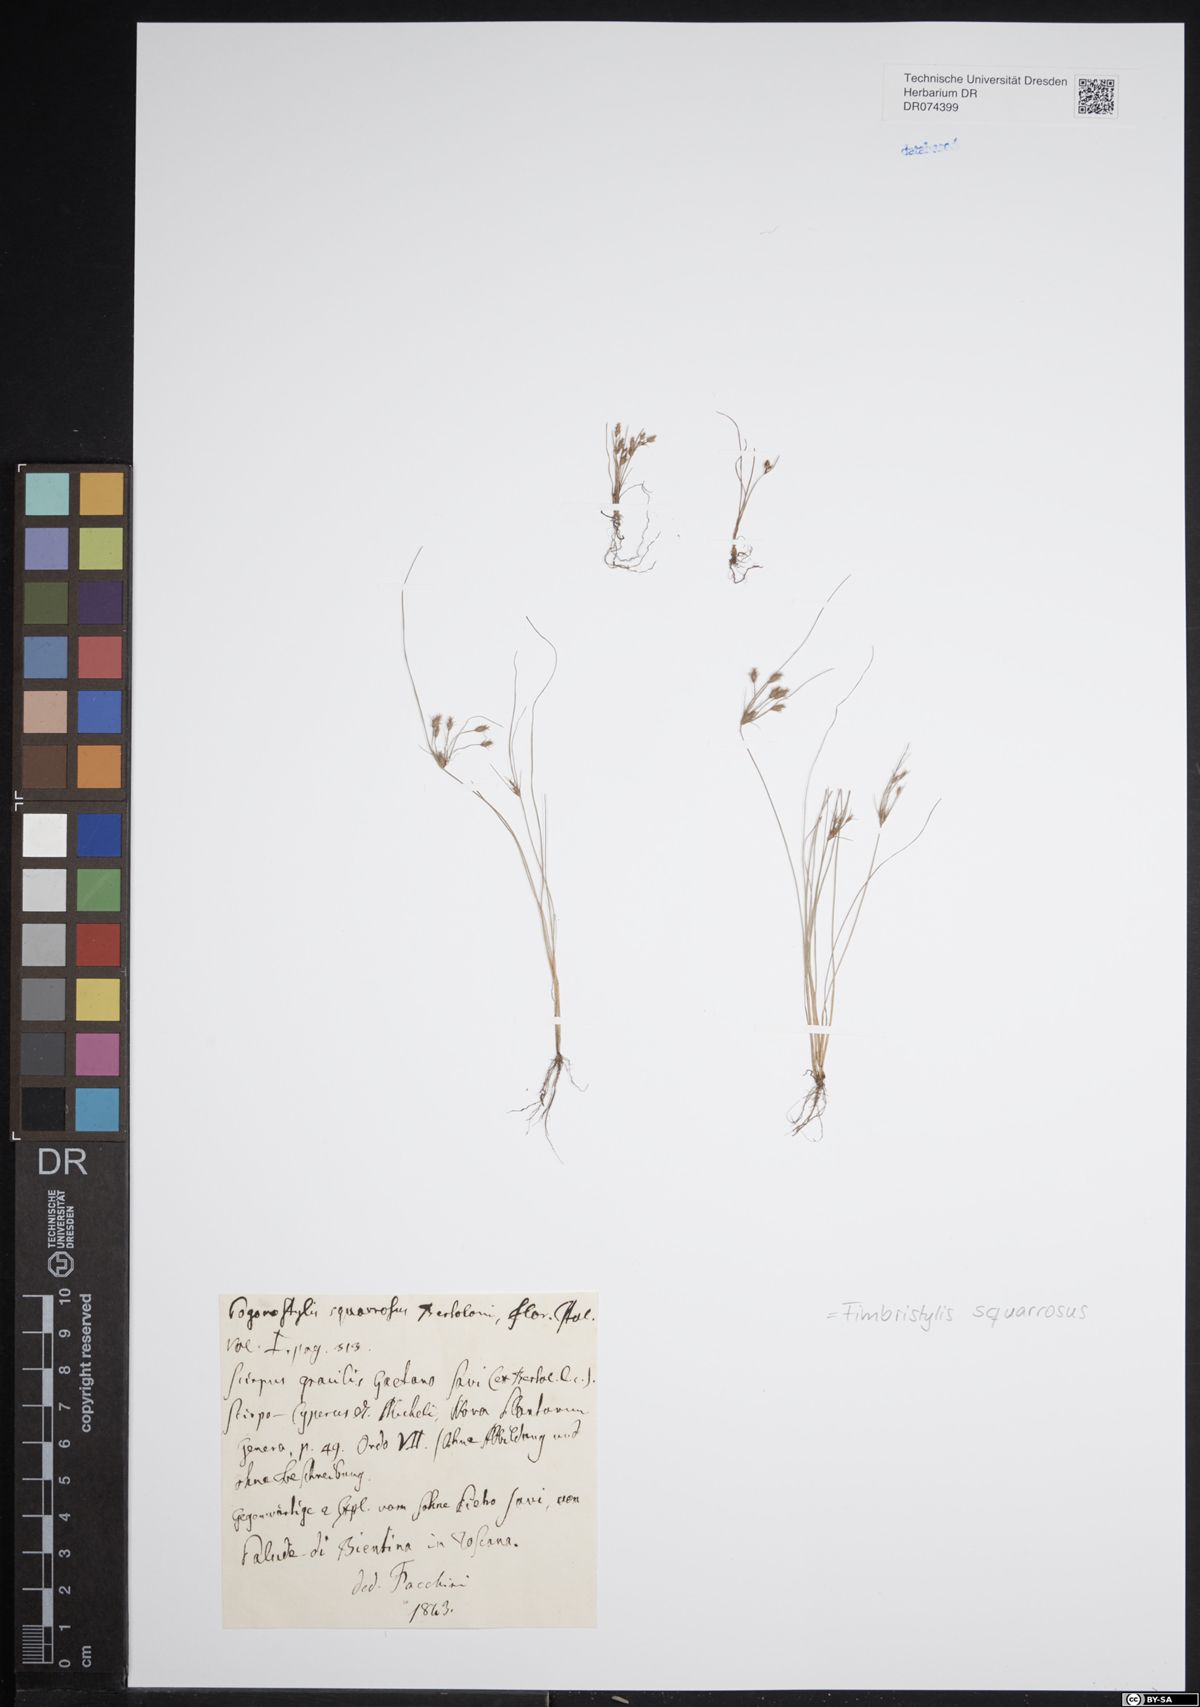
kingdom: Plantae
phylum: Tracheophyta
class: Liliopsida
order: Poales
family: Cyperaceae
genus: Fimbristylis
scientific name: Fimbristylis squarrosa
